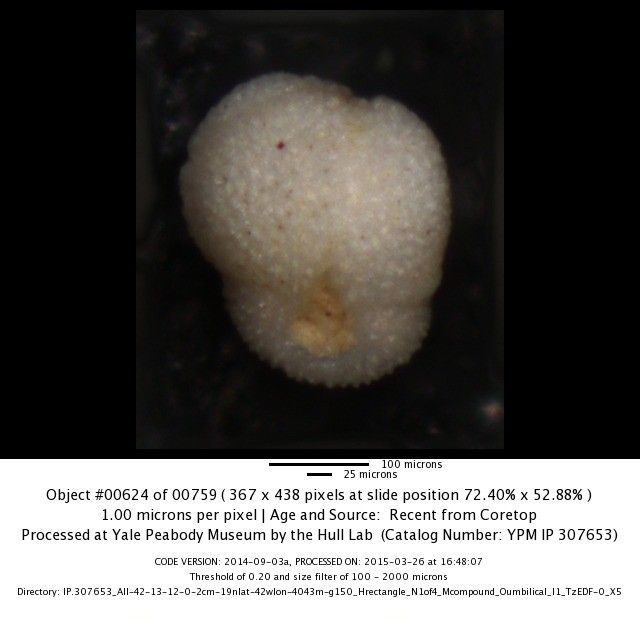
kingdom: Chromista
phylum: Foraminifera
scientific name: Foraminifera
